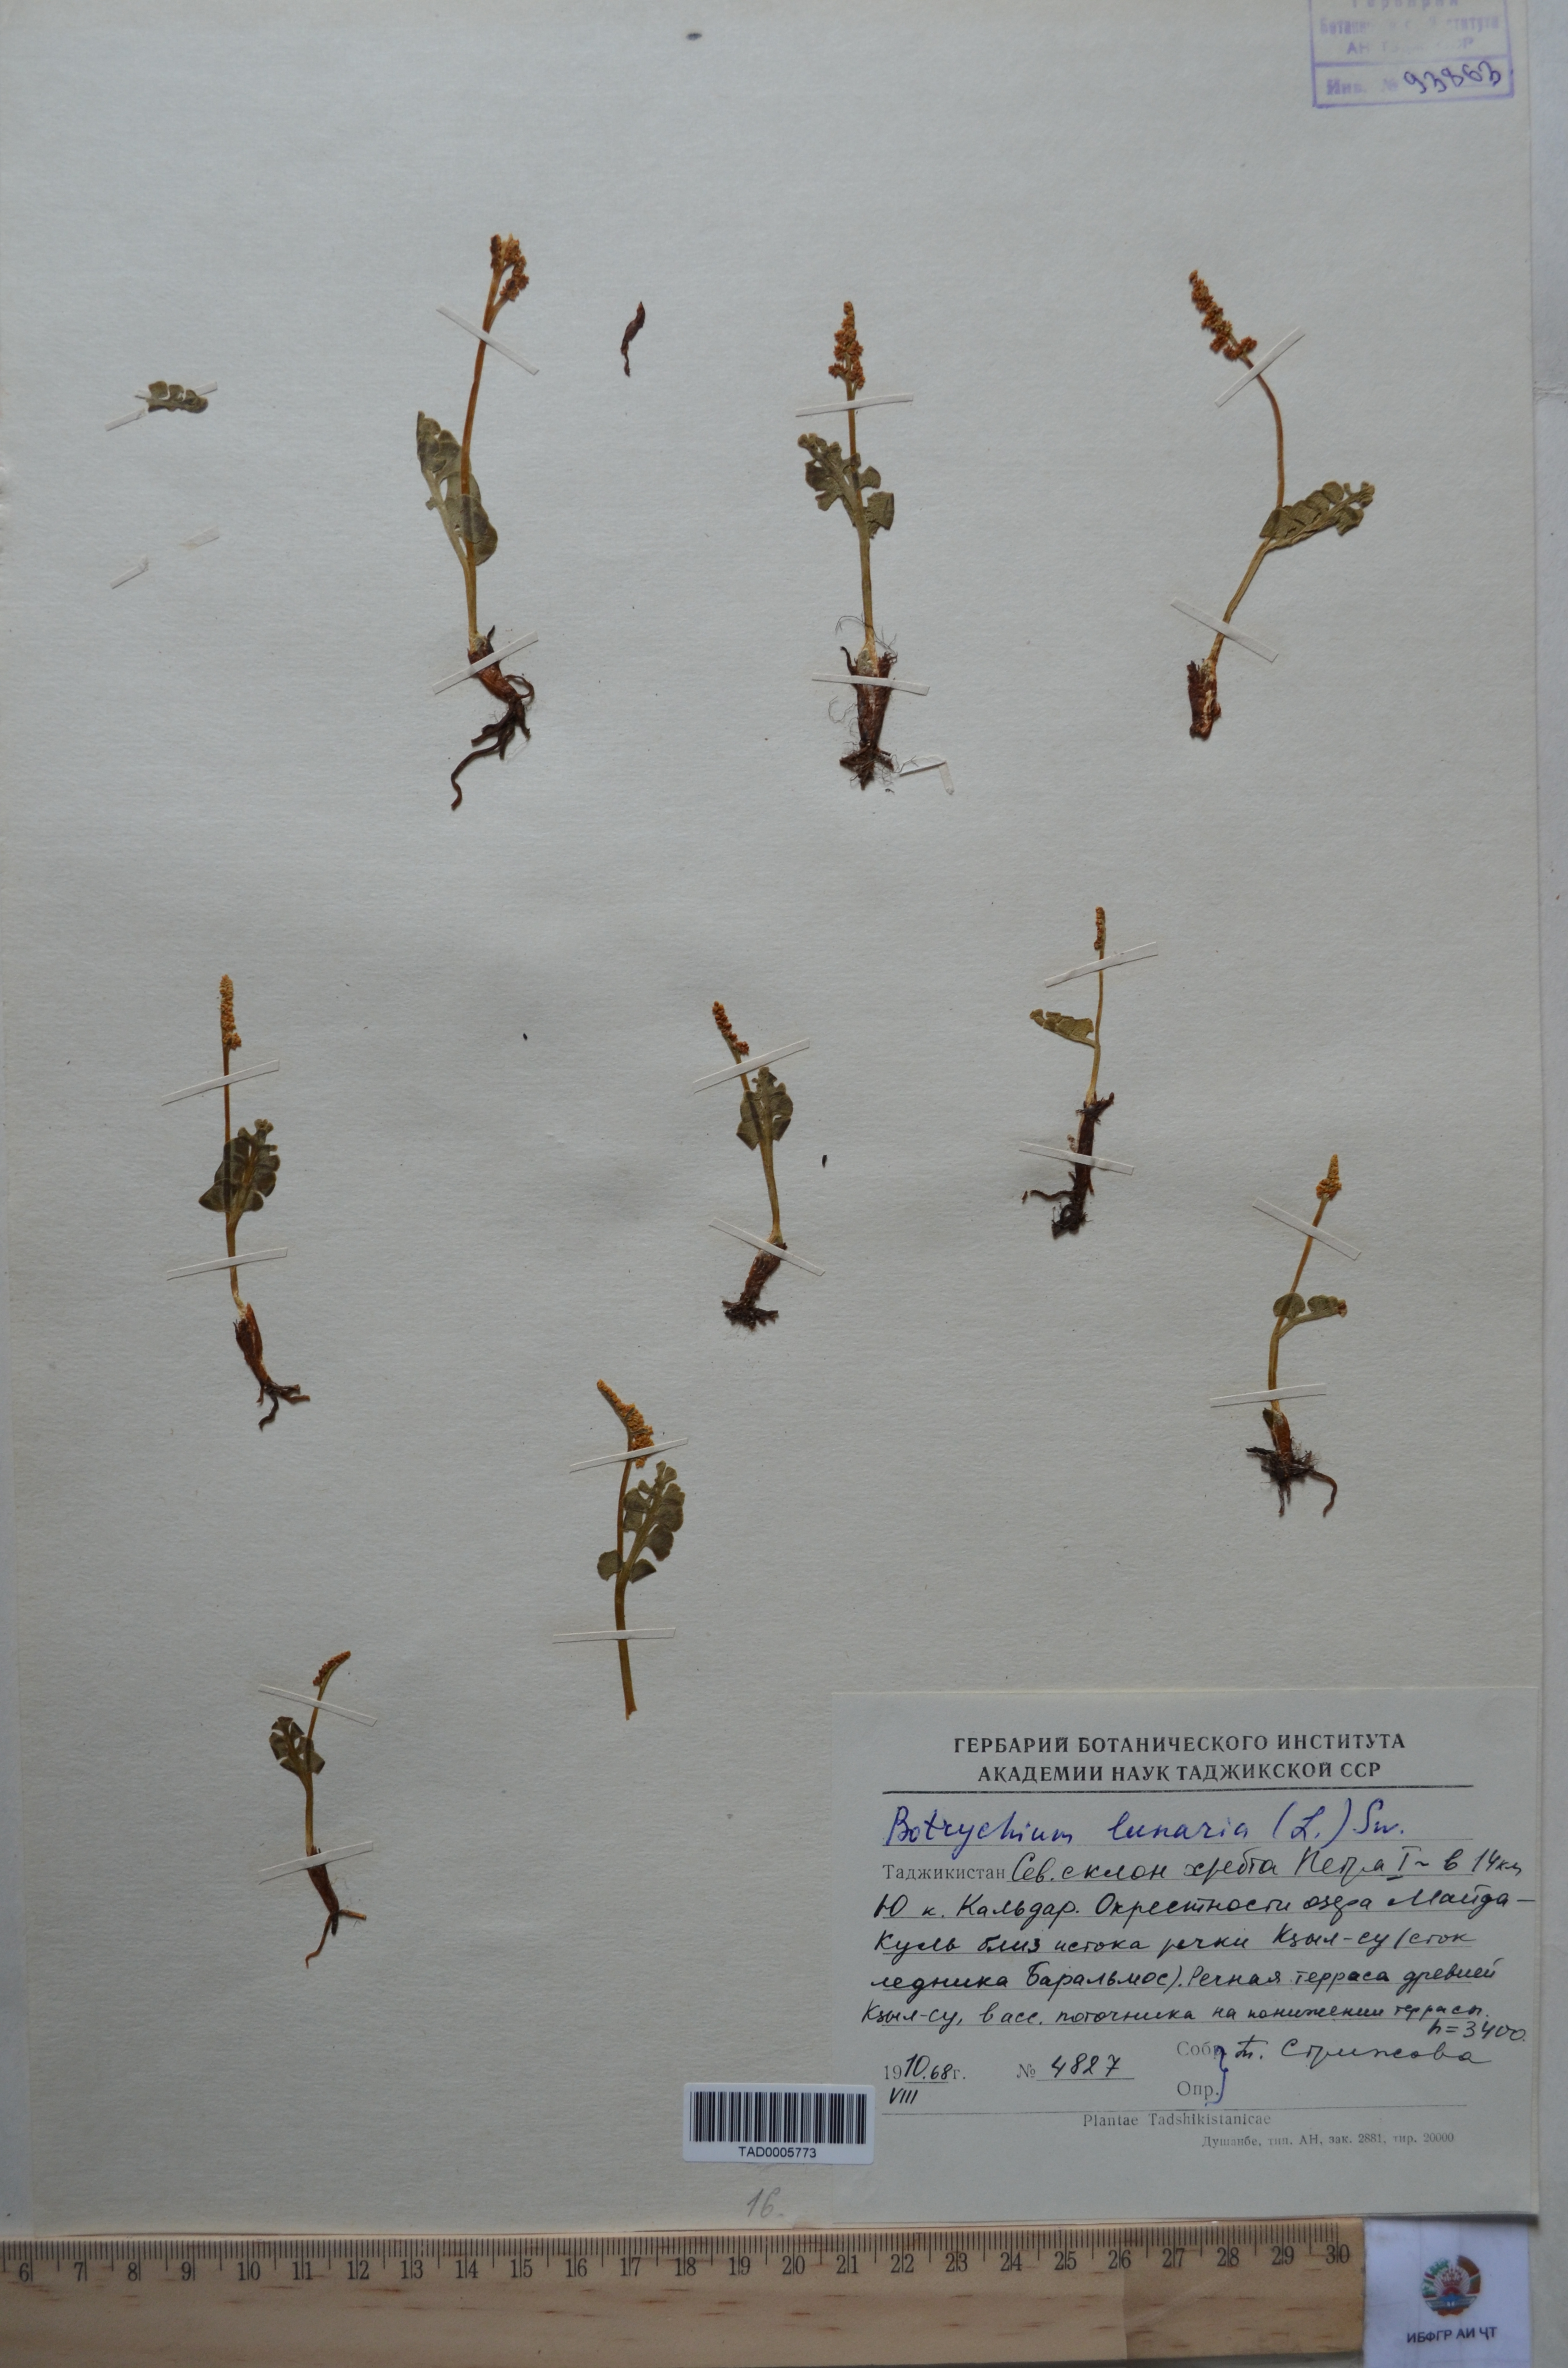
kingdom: Plantae
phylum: Tracheophyta
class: Polypodiopsida
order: Ophioglossales
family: Ophioglossaceae
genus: Botrychium
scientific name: Botrychium lunaria
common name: Moonwort
